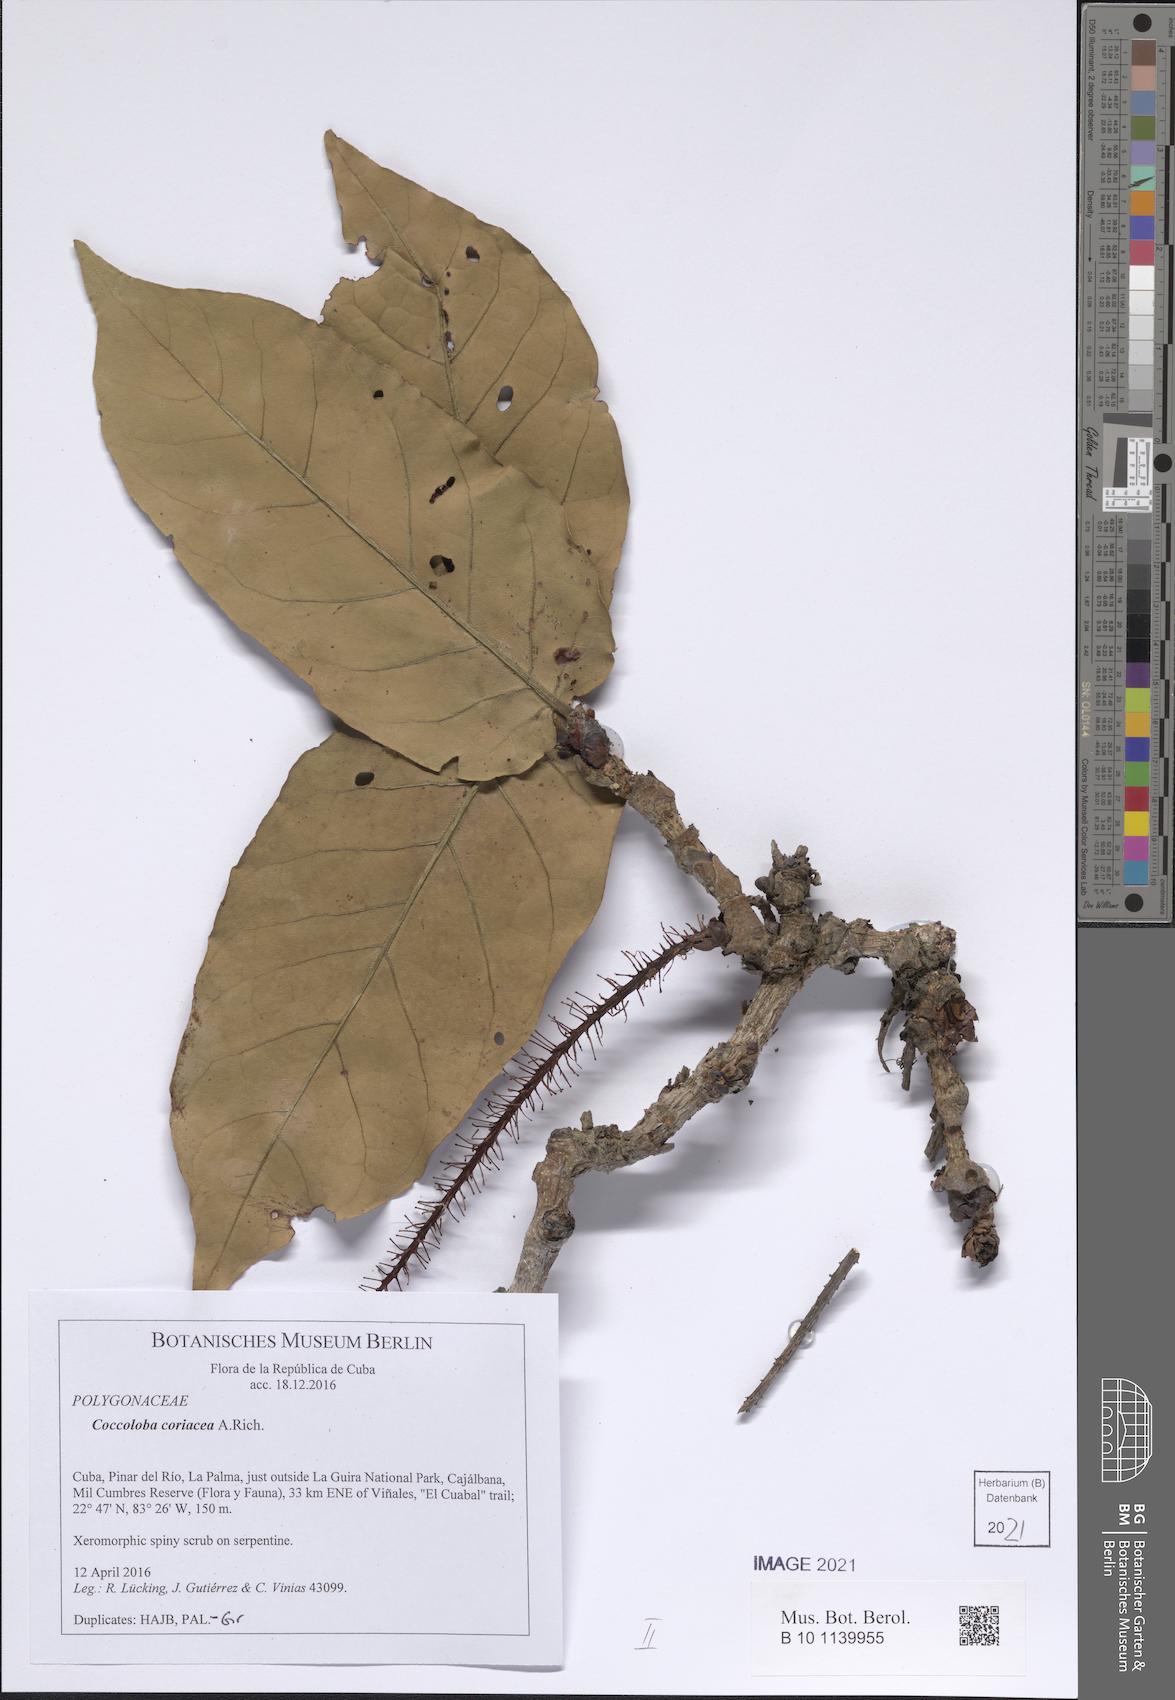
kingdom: Plantae
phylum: Tracheophyta
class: Magnoliopsida
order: Caryophyllales
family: Polygonaceae
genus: Coccoloba
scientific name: Coccoloba coriacea
